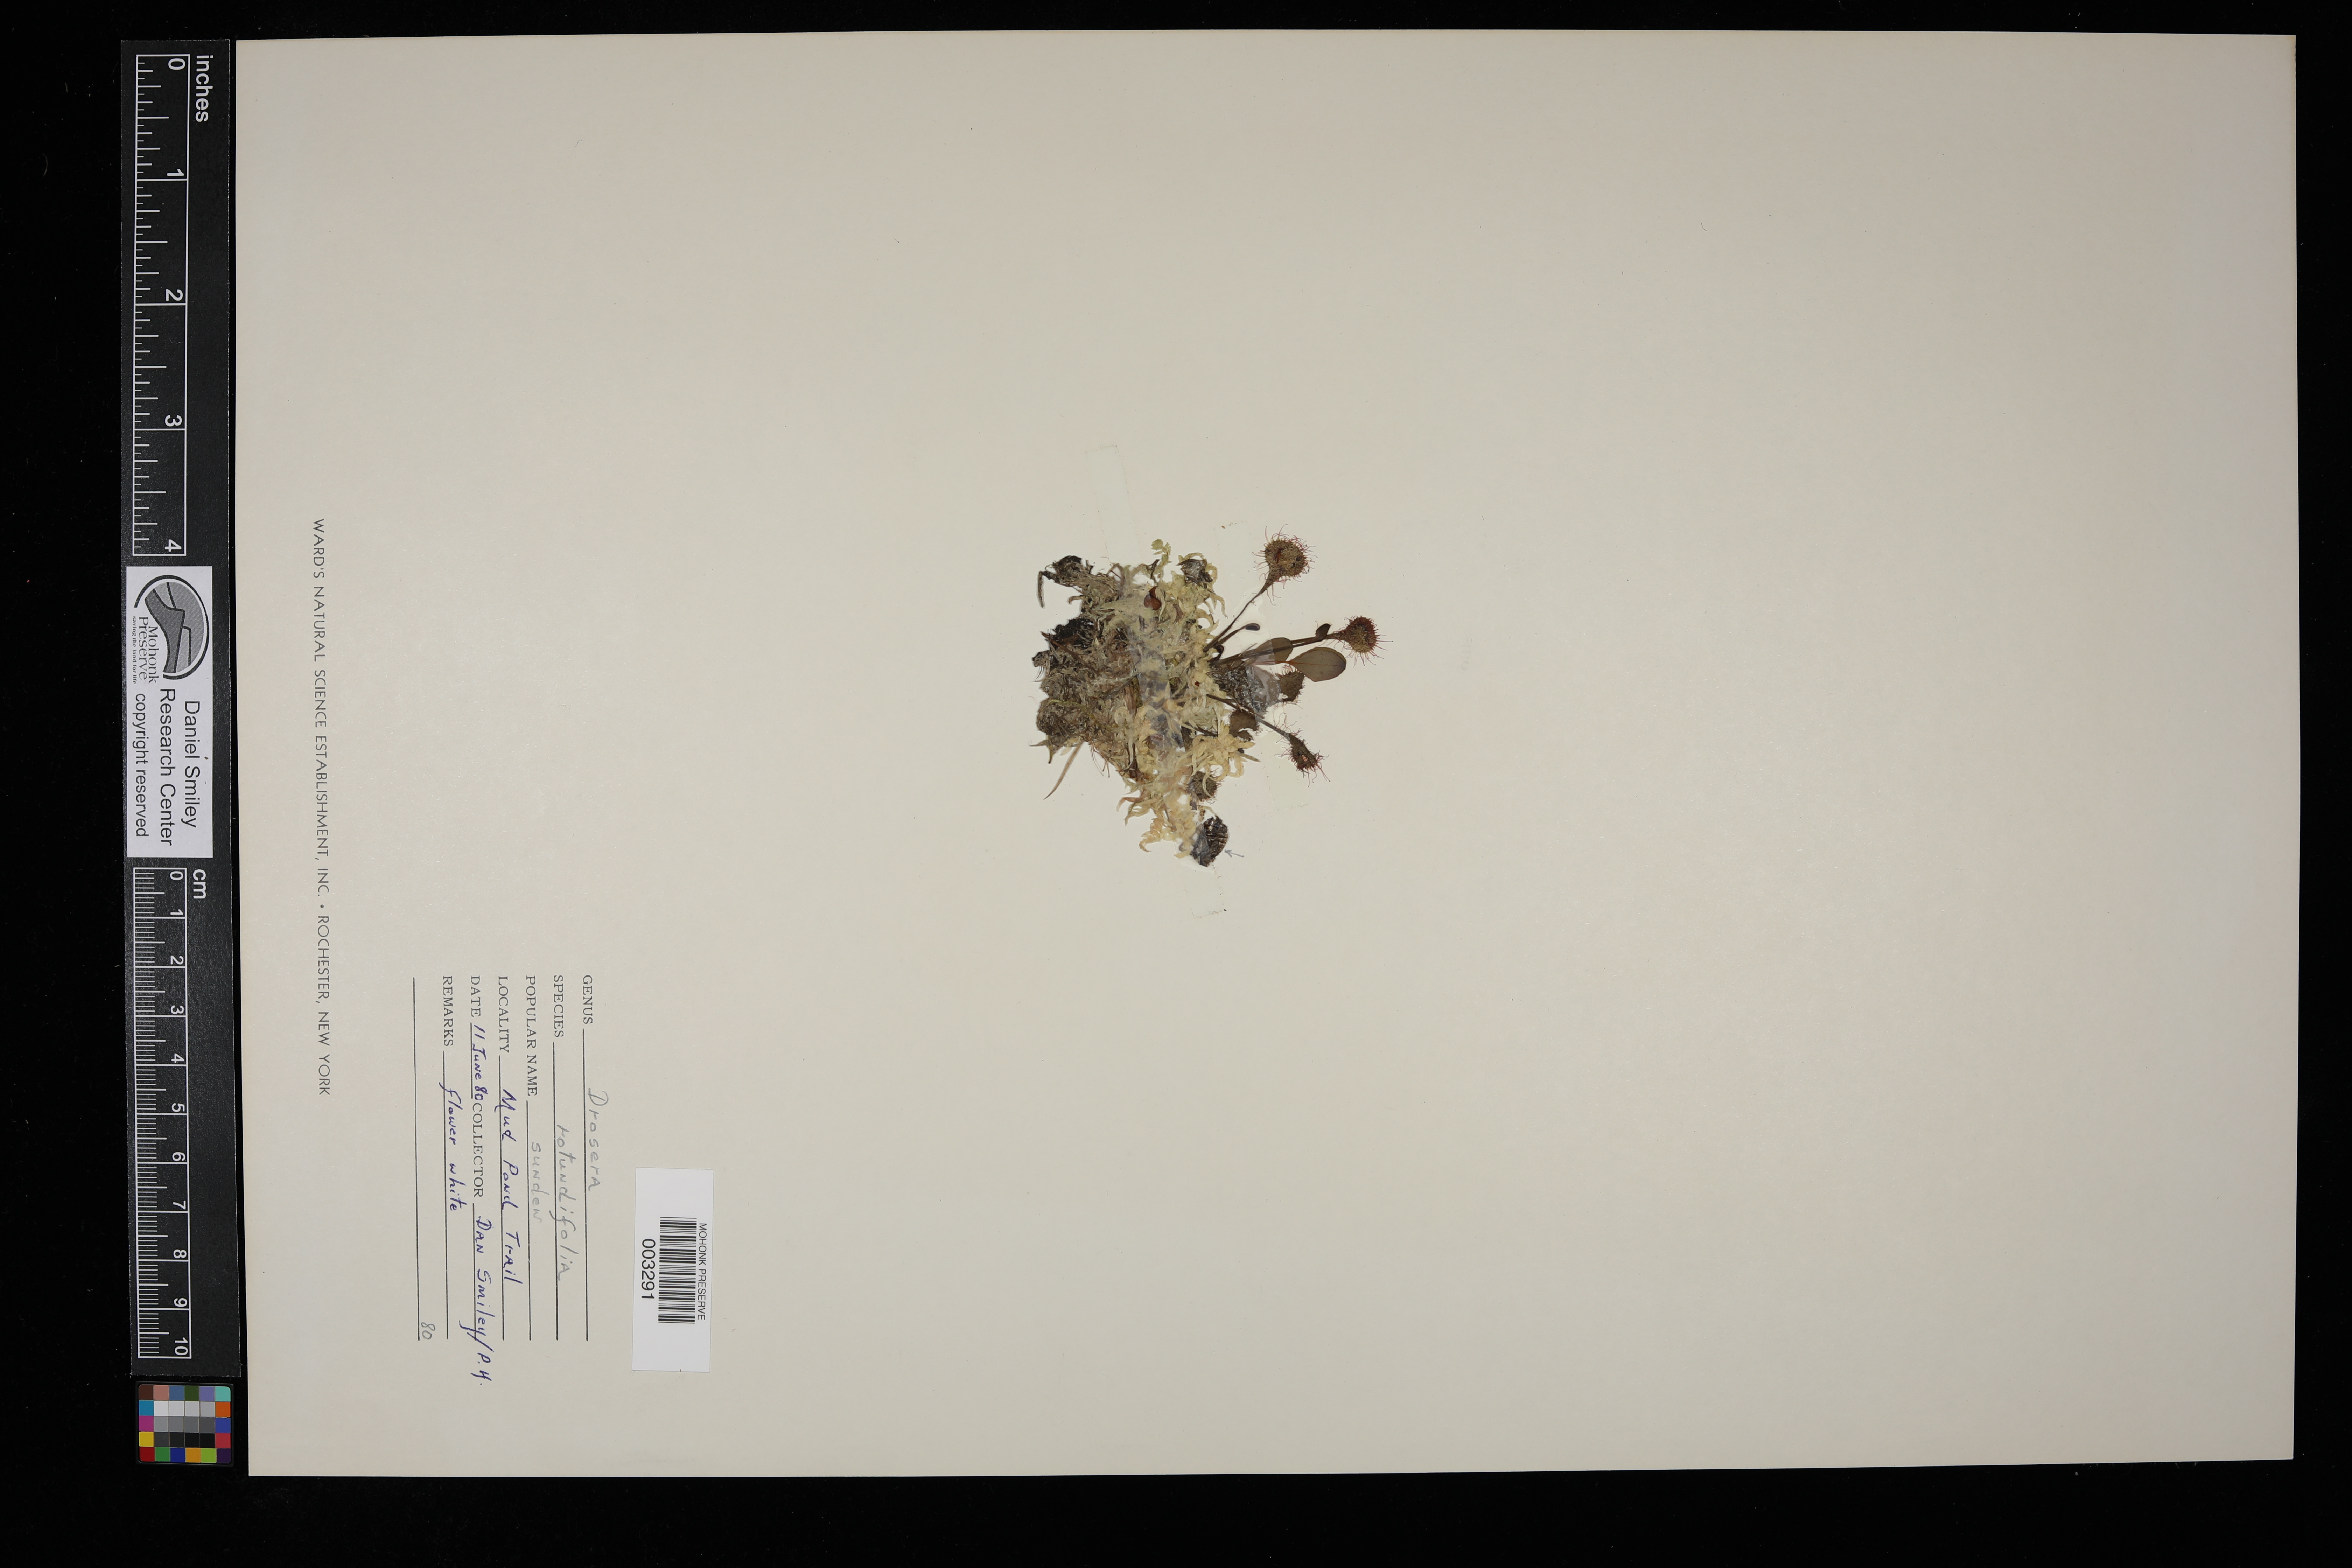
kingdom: Plantae
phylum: Tracheophyta
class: Magnoliopsida
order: Caryophyllales
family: Droseraceae
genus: Drosera
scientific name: Drosera rotundifolia
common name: Round-leaved sundew
